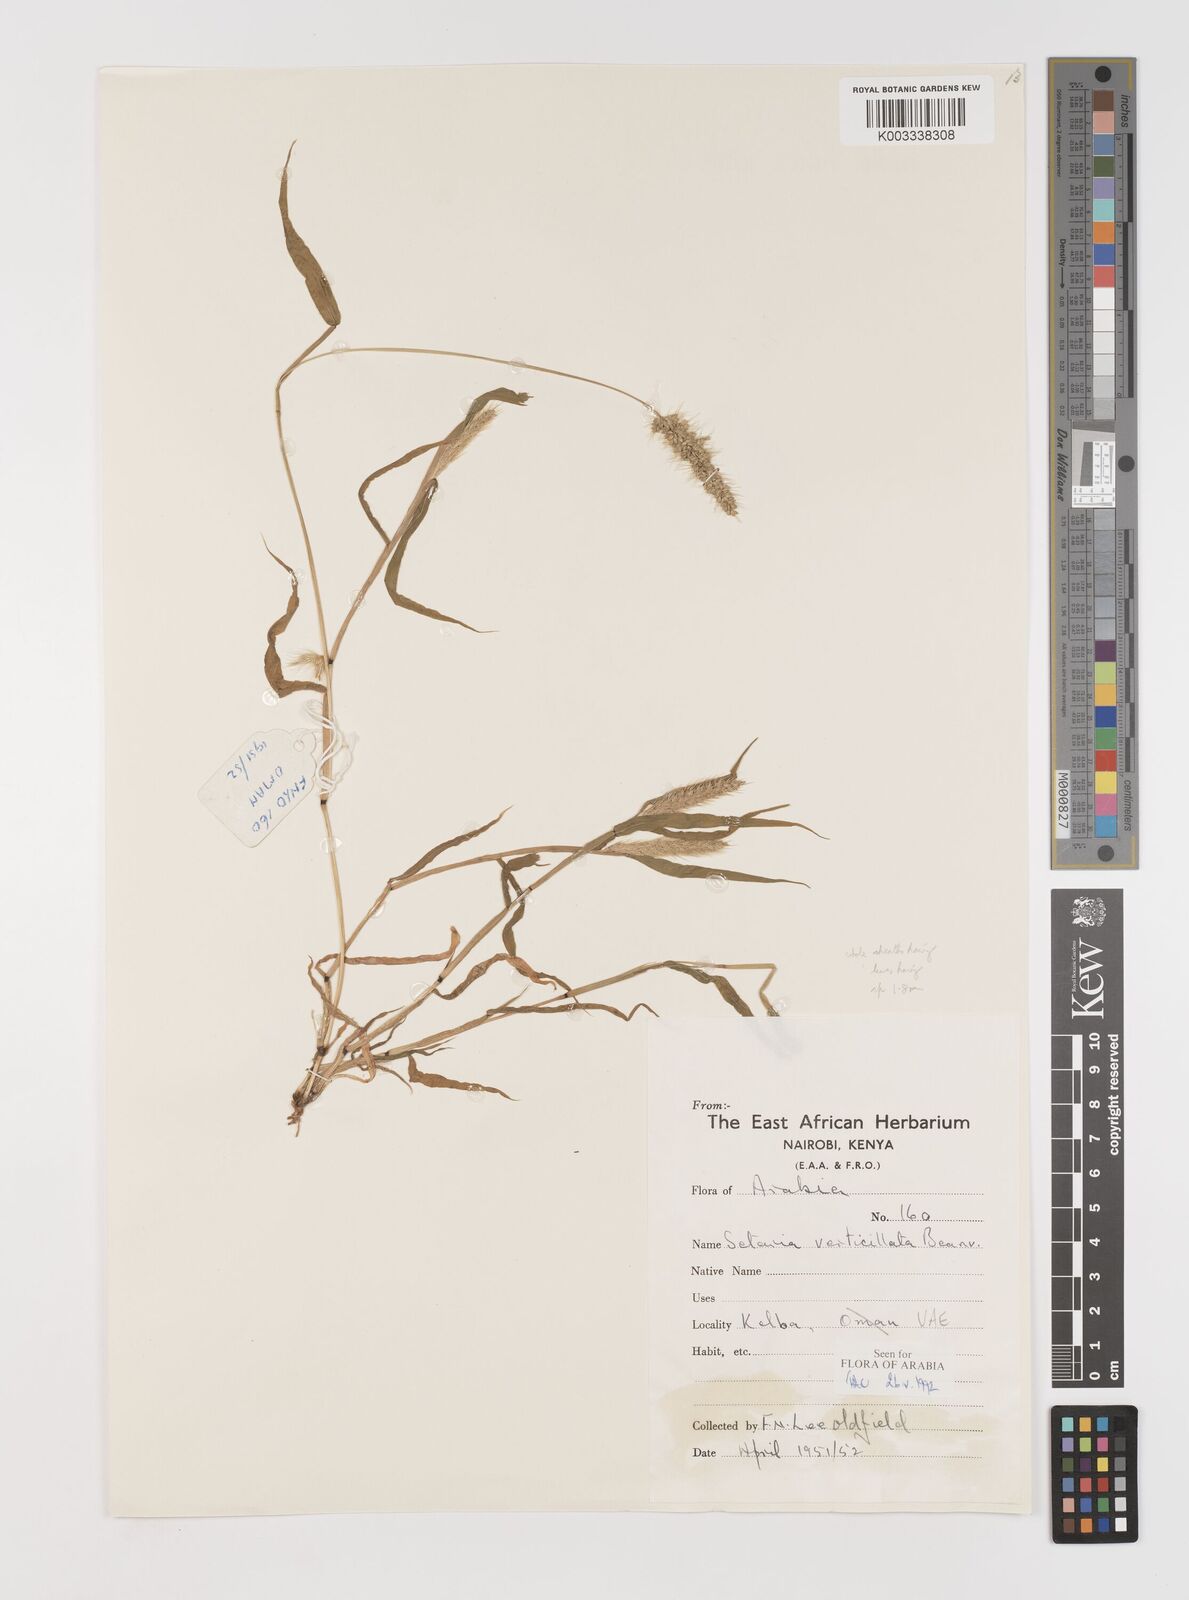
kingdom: Plantae
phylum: Tracheophyta
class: Liliopsida
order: Poales
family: Poaceae
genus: Setaria
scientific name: Setaria grisebachii
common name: Grisebach's bristle grass
